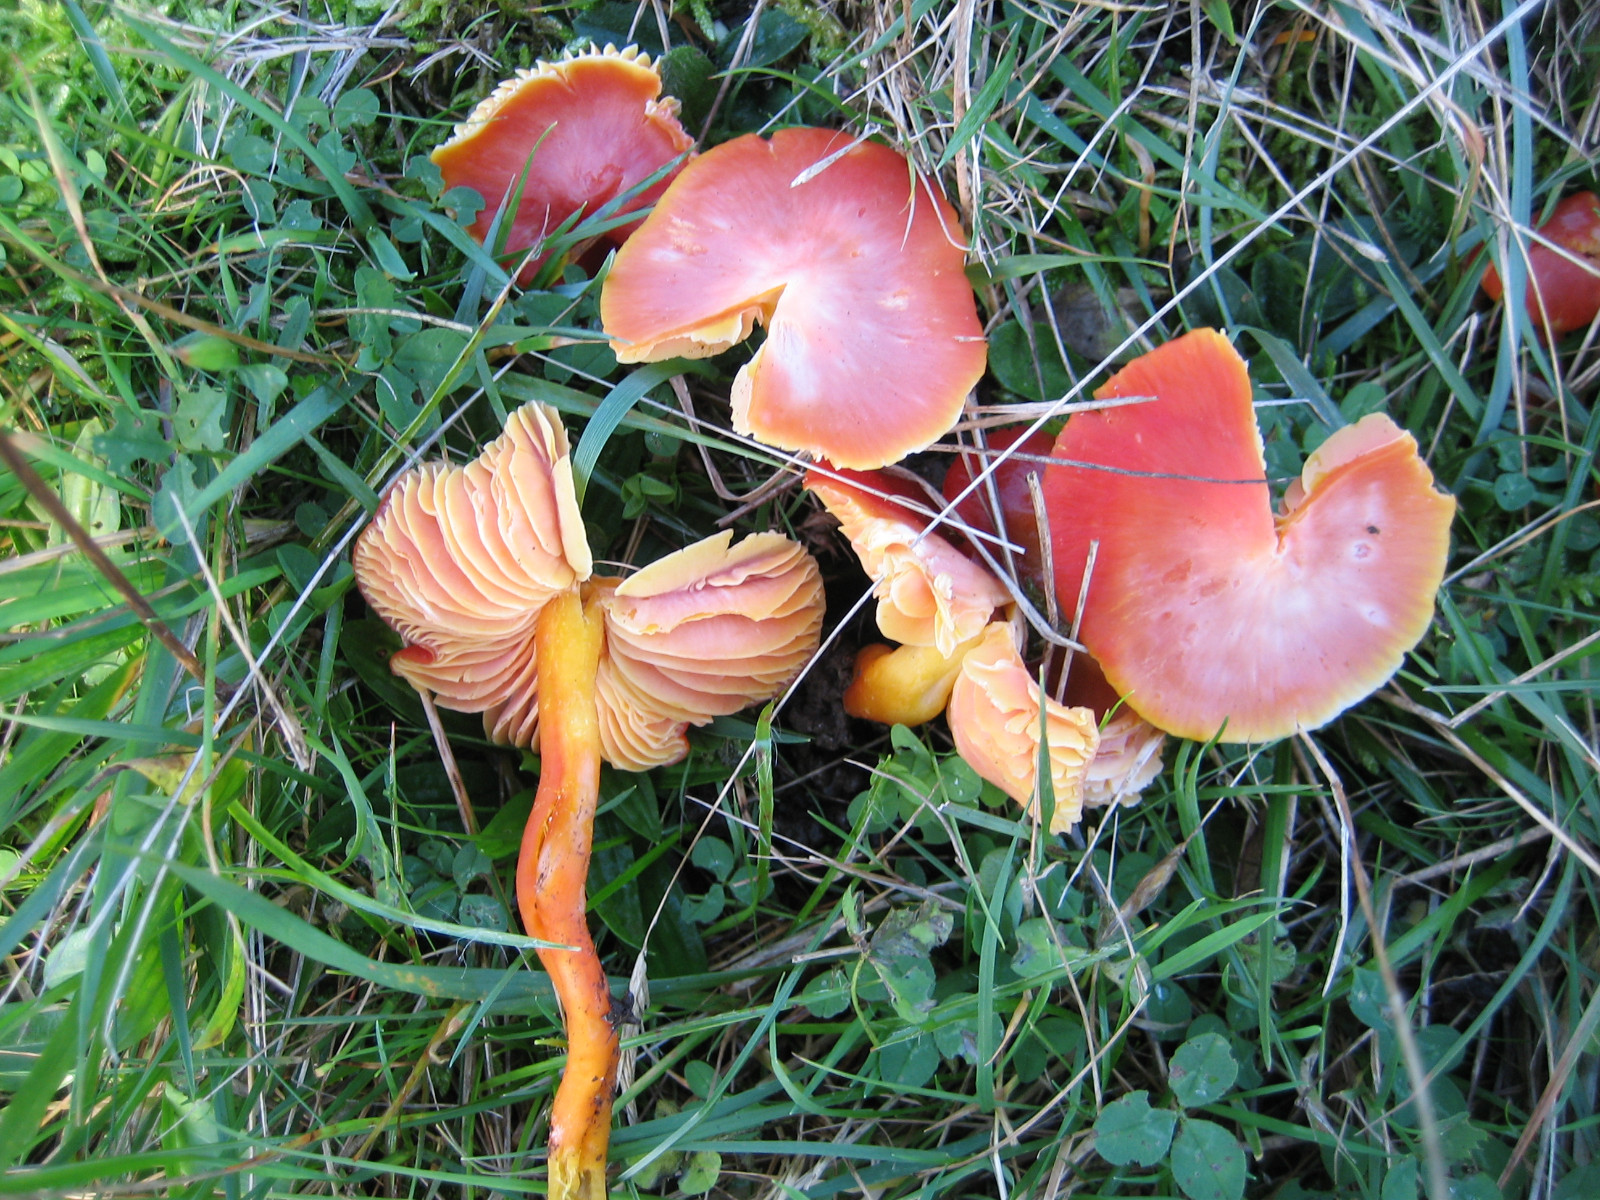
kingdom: Fungi
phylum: Basidiomycota
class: Agaricomycetes
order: Agaricales
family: Hygrophoraceae
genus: Hygrocybe
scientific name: Hygrocybe splendidissima
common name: knaldrød vokshat
